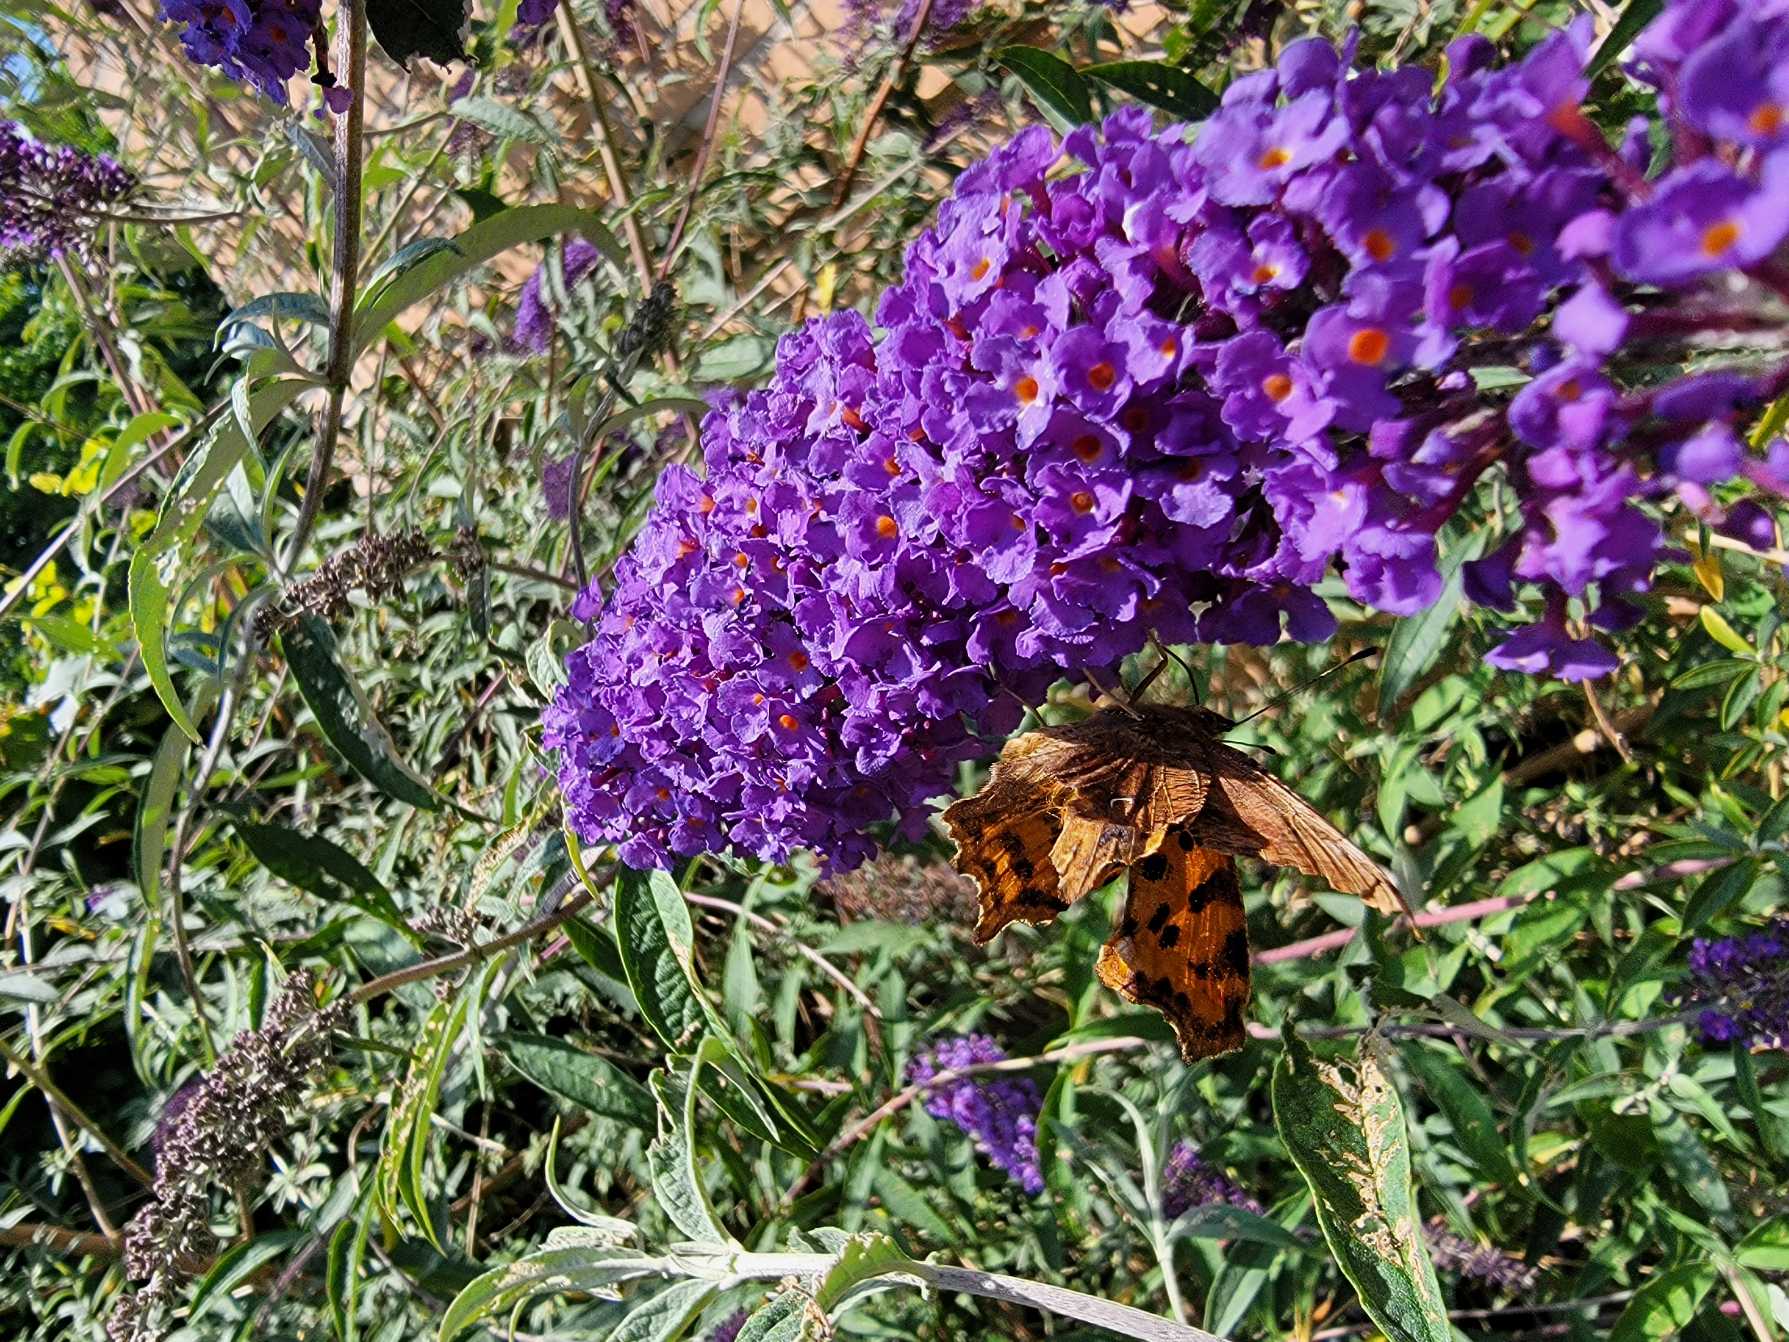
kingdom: Animalia
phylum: Arthropoda
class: Insecta
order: Lepidoptera
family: Nymphalidae
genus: Polygonia
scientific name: Polygonia c-album
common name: Det hvide C
